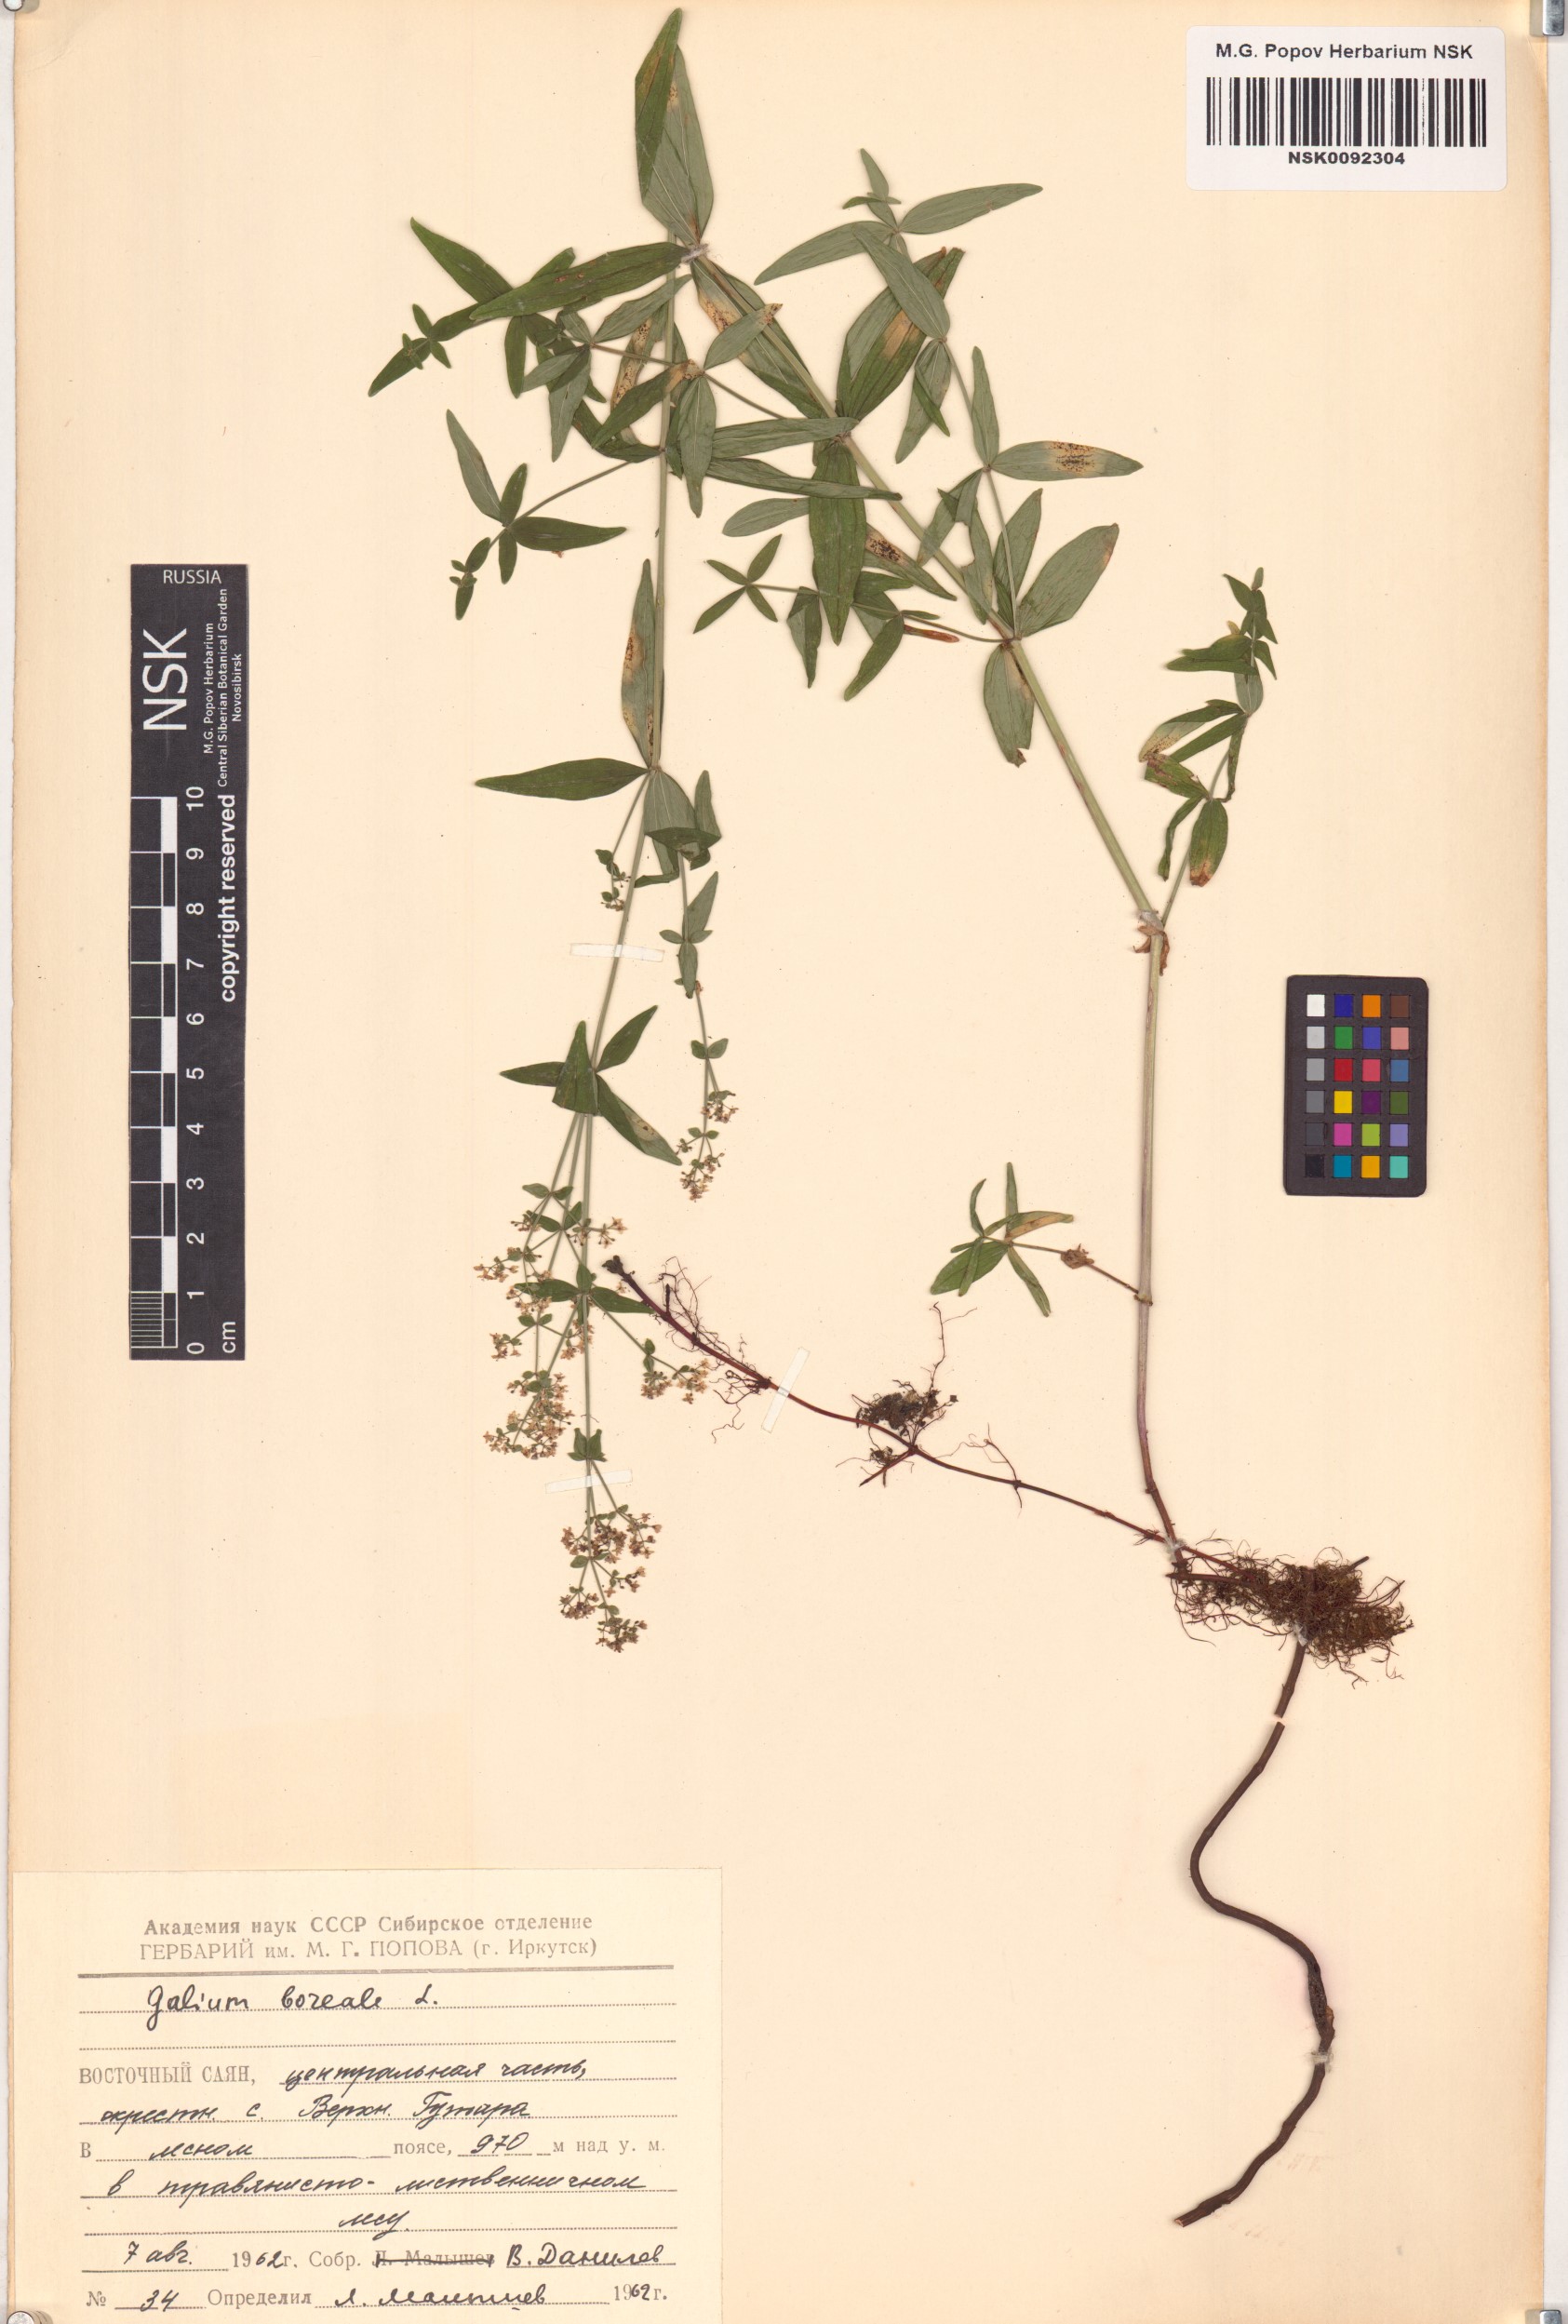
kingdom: Plantae
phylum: Tracheophyta
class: Magnoliopsida
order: Gentianales
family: Rubiaceae
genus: Galium
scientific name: Galium boreale
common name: Northern bedstraw
